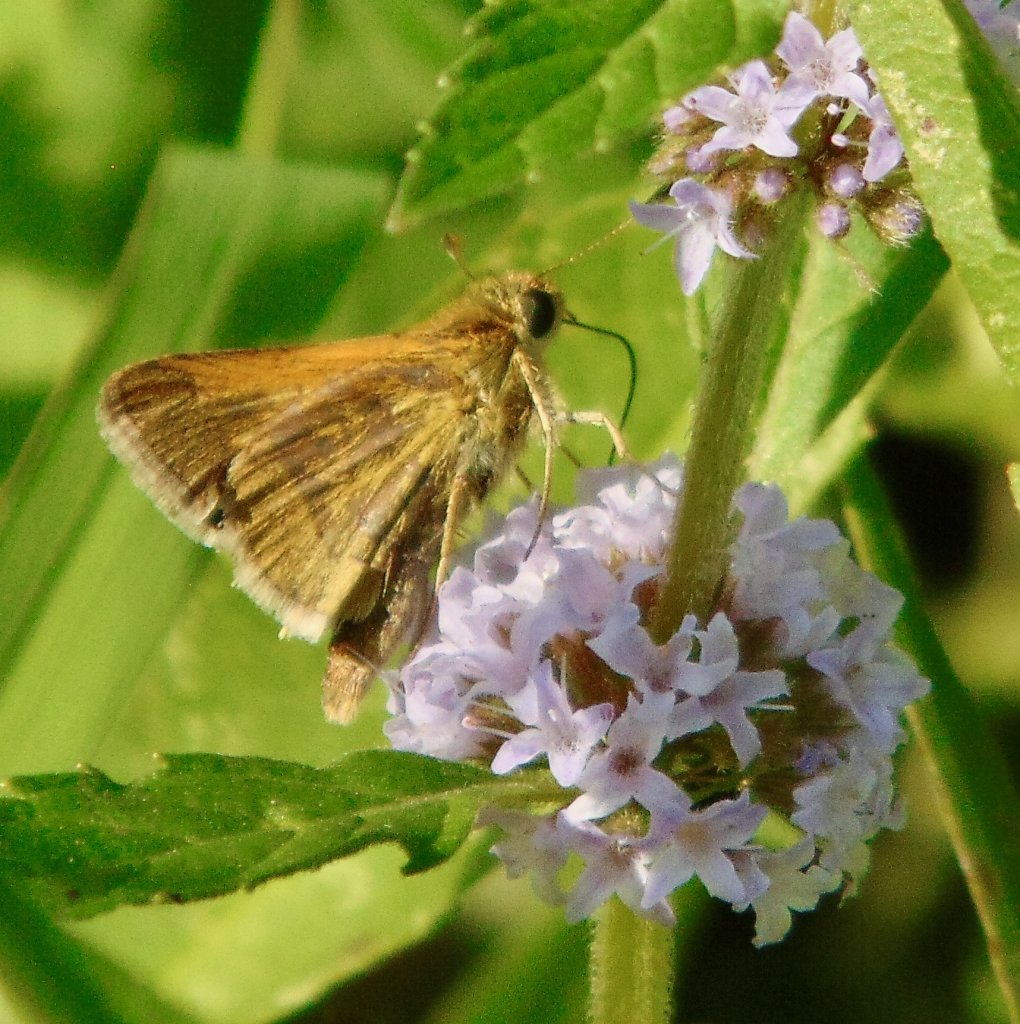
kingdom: Animalia
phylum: Arthropoda
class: Insecta
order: Lepidoptera
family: Hesperiidae
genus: Polites
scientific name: Polites themistocles
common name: Tawny-edged Skipper
